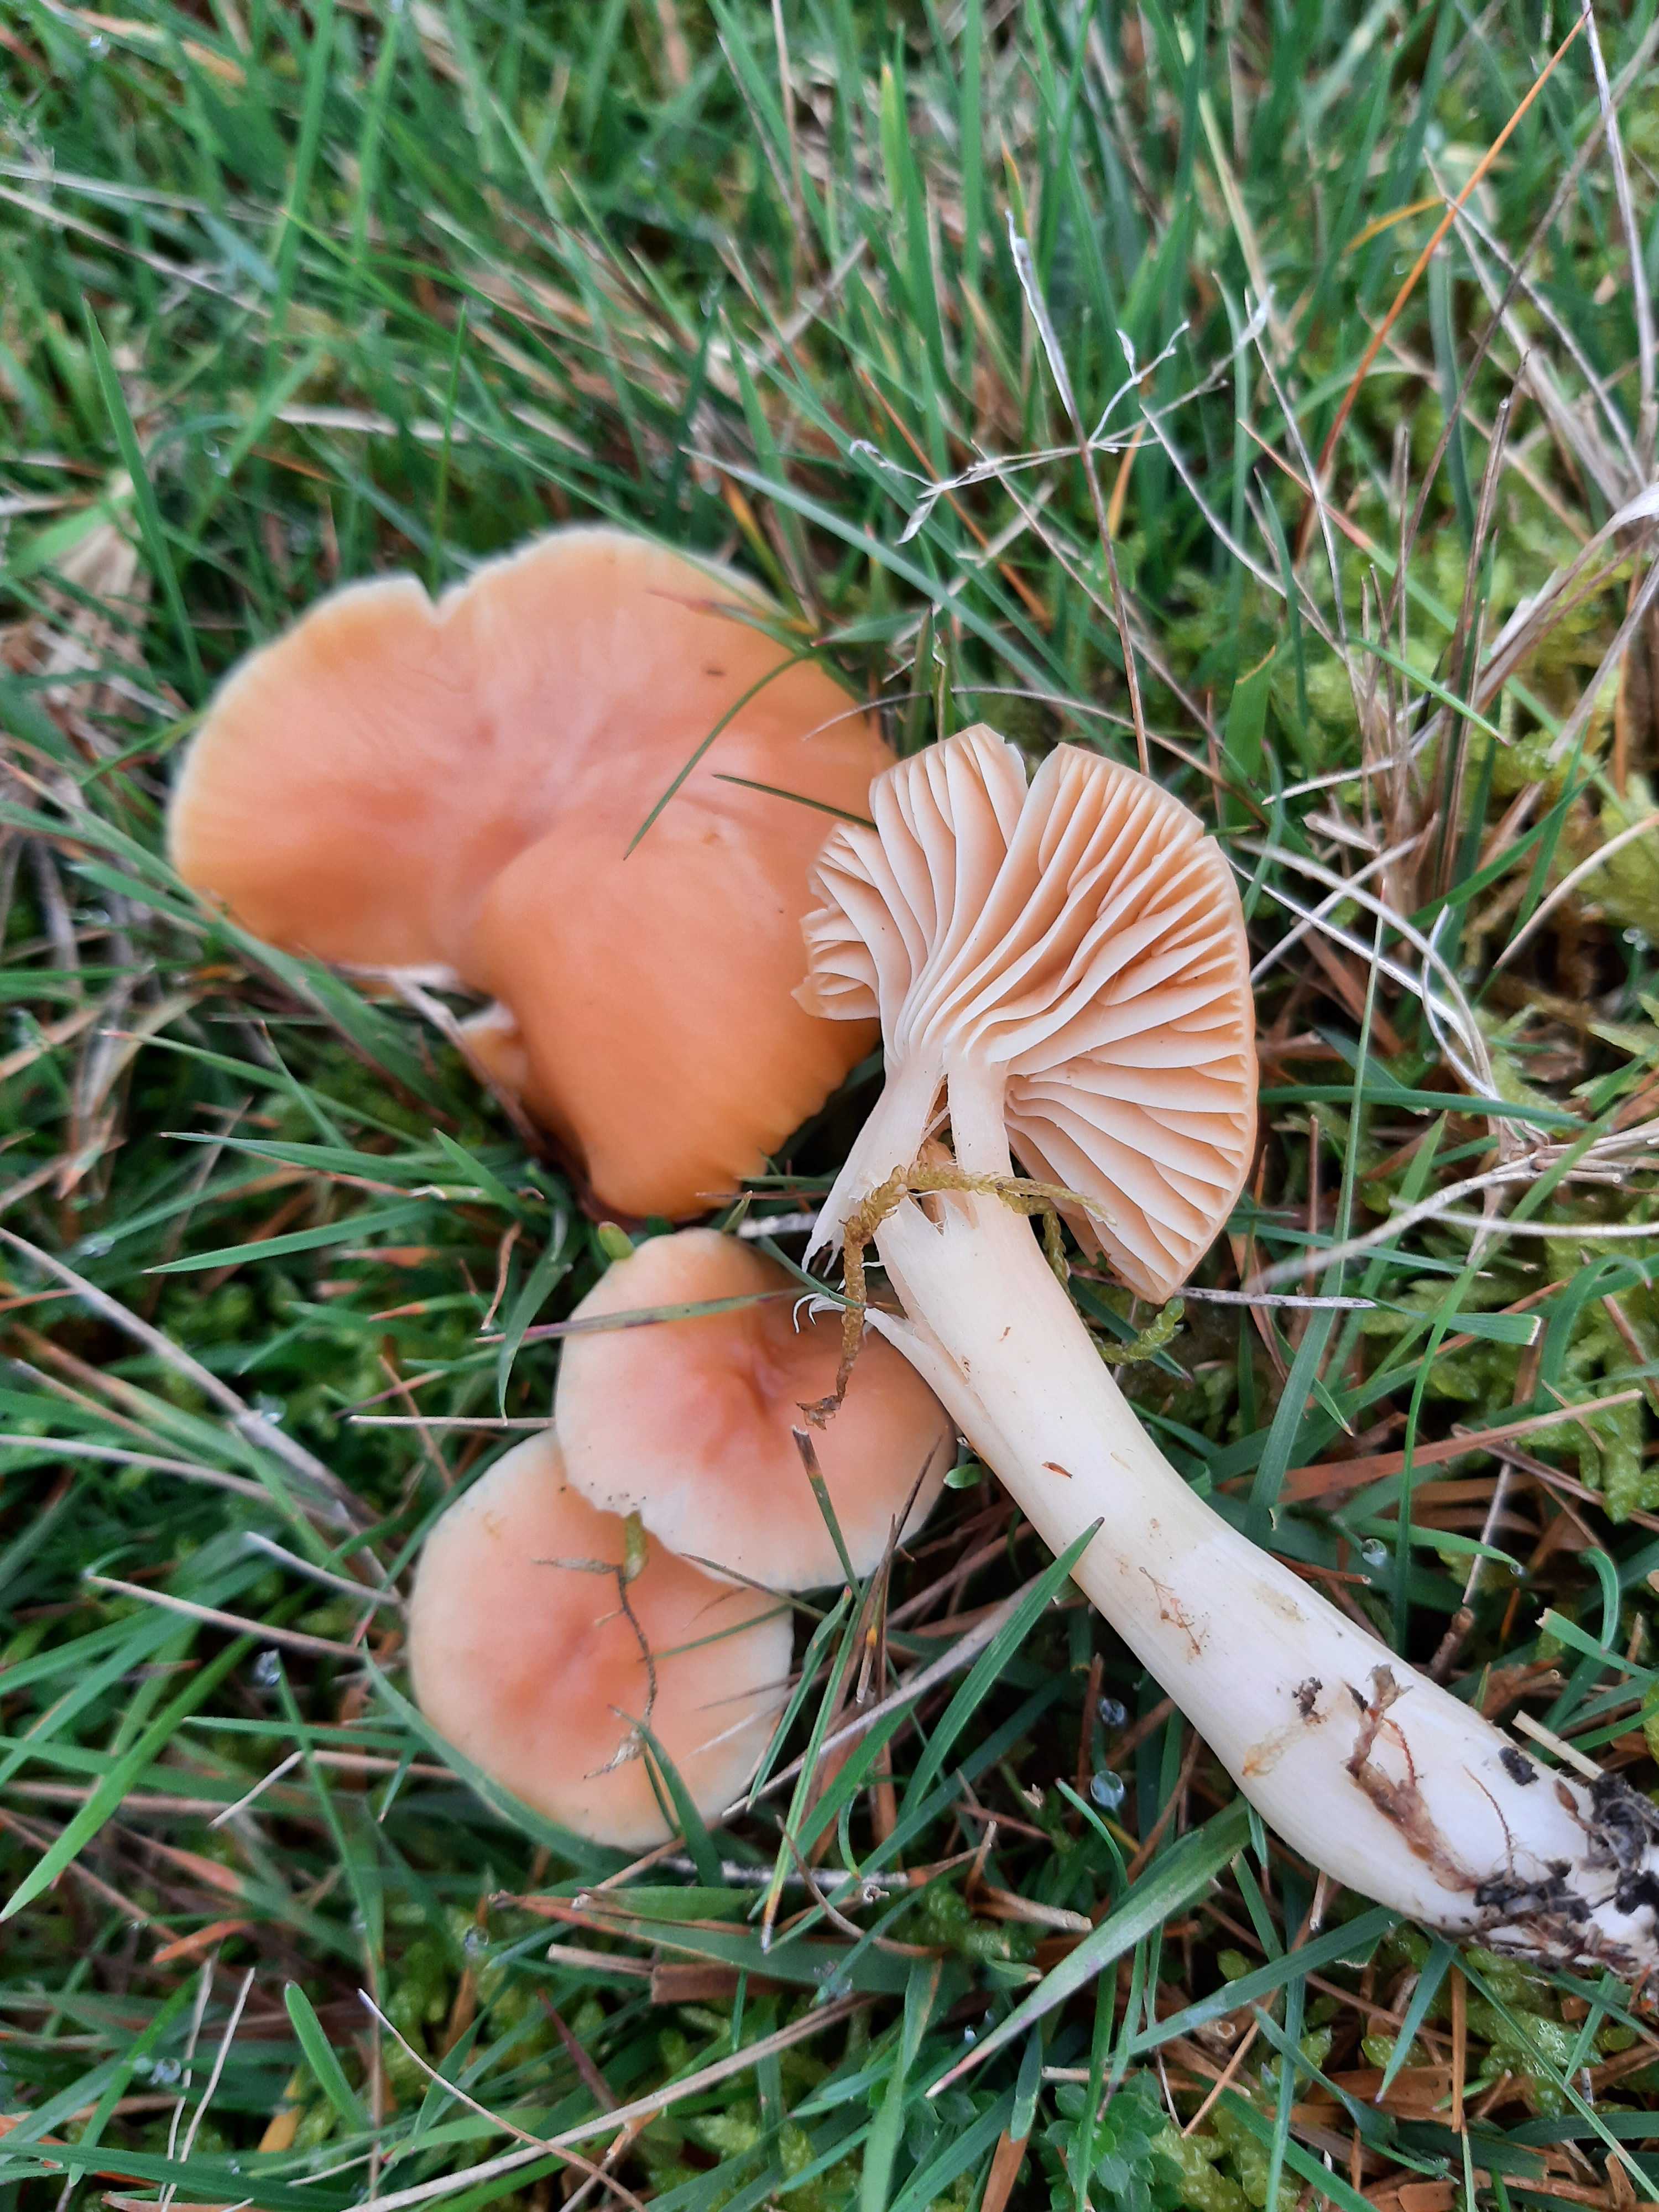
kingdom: Fungi
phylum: Basidiomycota
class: Agaricomycetes
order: Agaricales
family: Hygrophoraceae
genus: Cuphophyllus
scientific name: Cuphophyllus pratensis
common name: eng-vokshat
